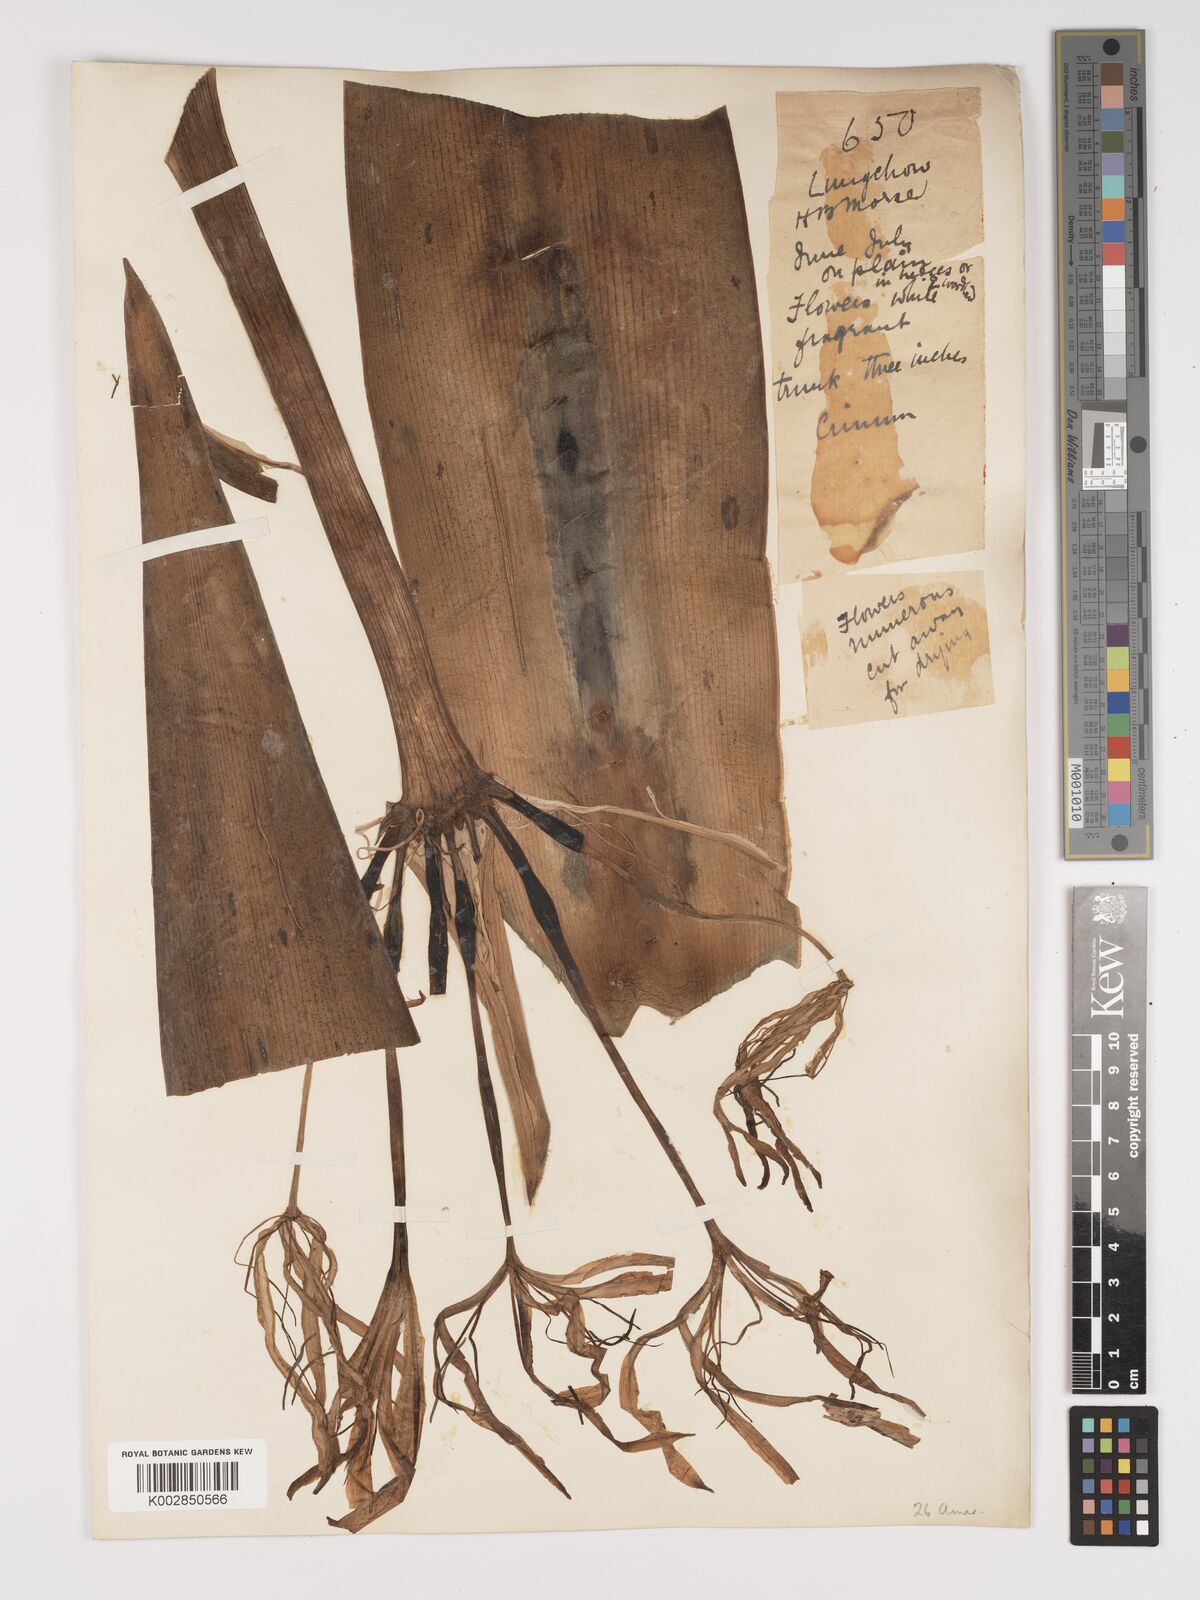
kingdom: Plantae
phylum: Tracheophyta
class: Liliopsida
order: Asparagales
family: Amaryllidaceae
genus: Crinum
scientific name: Crinum asiaticum
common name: Poisonbulb
